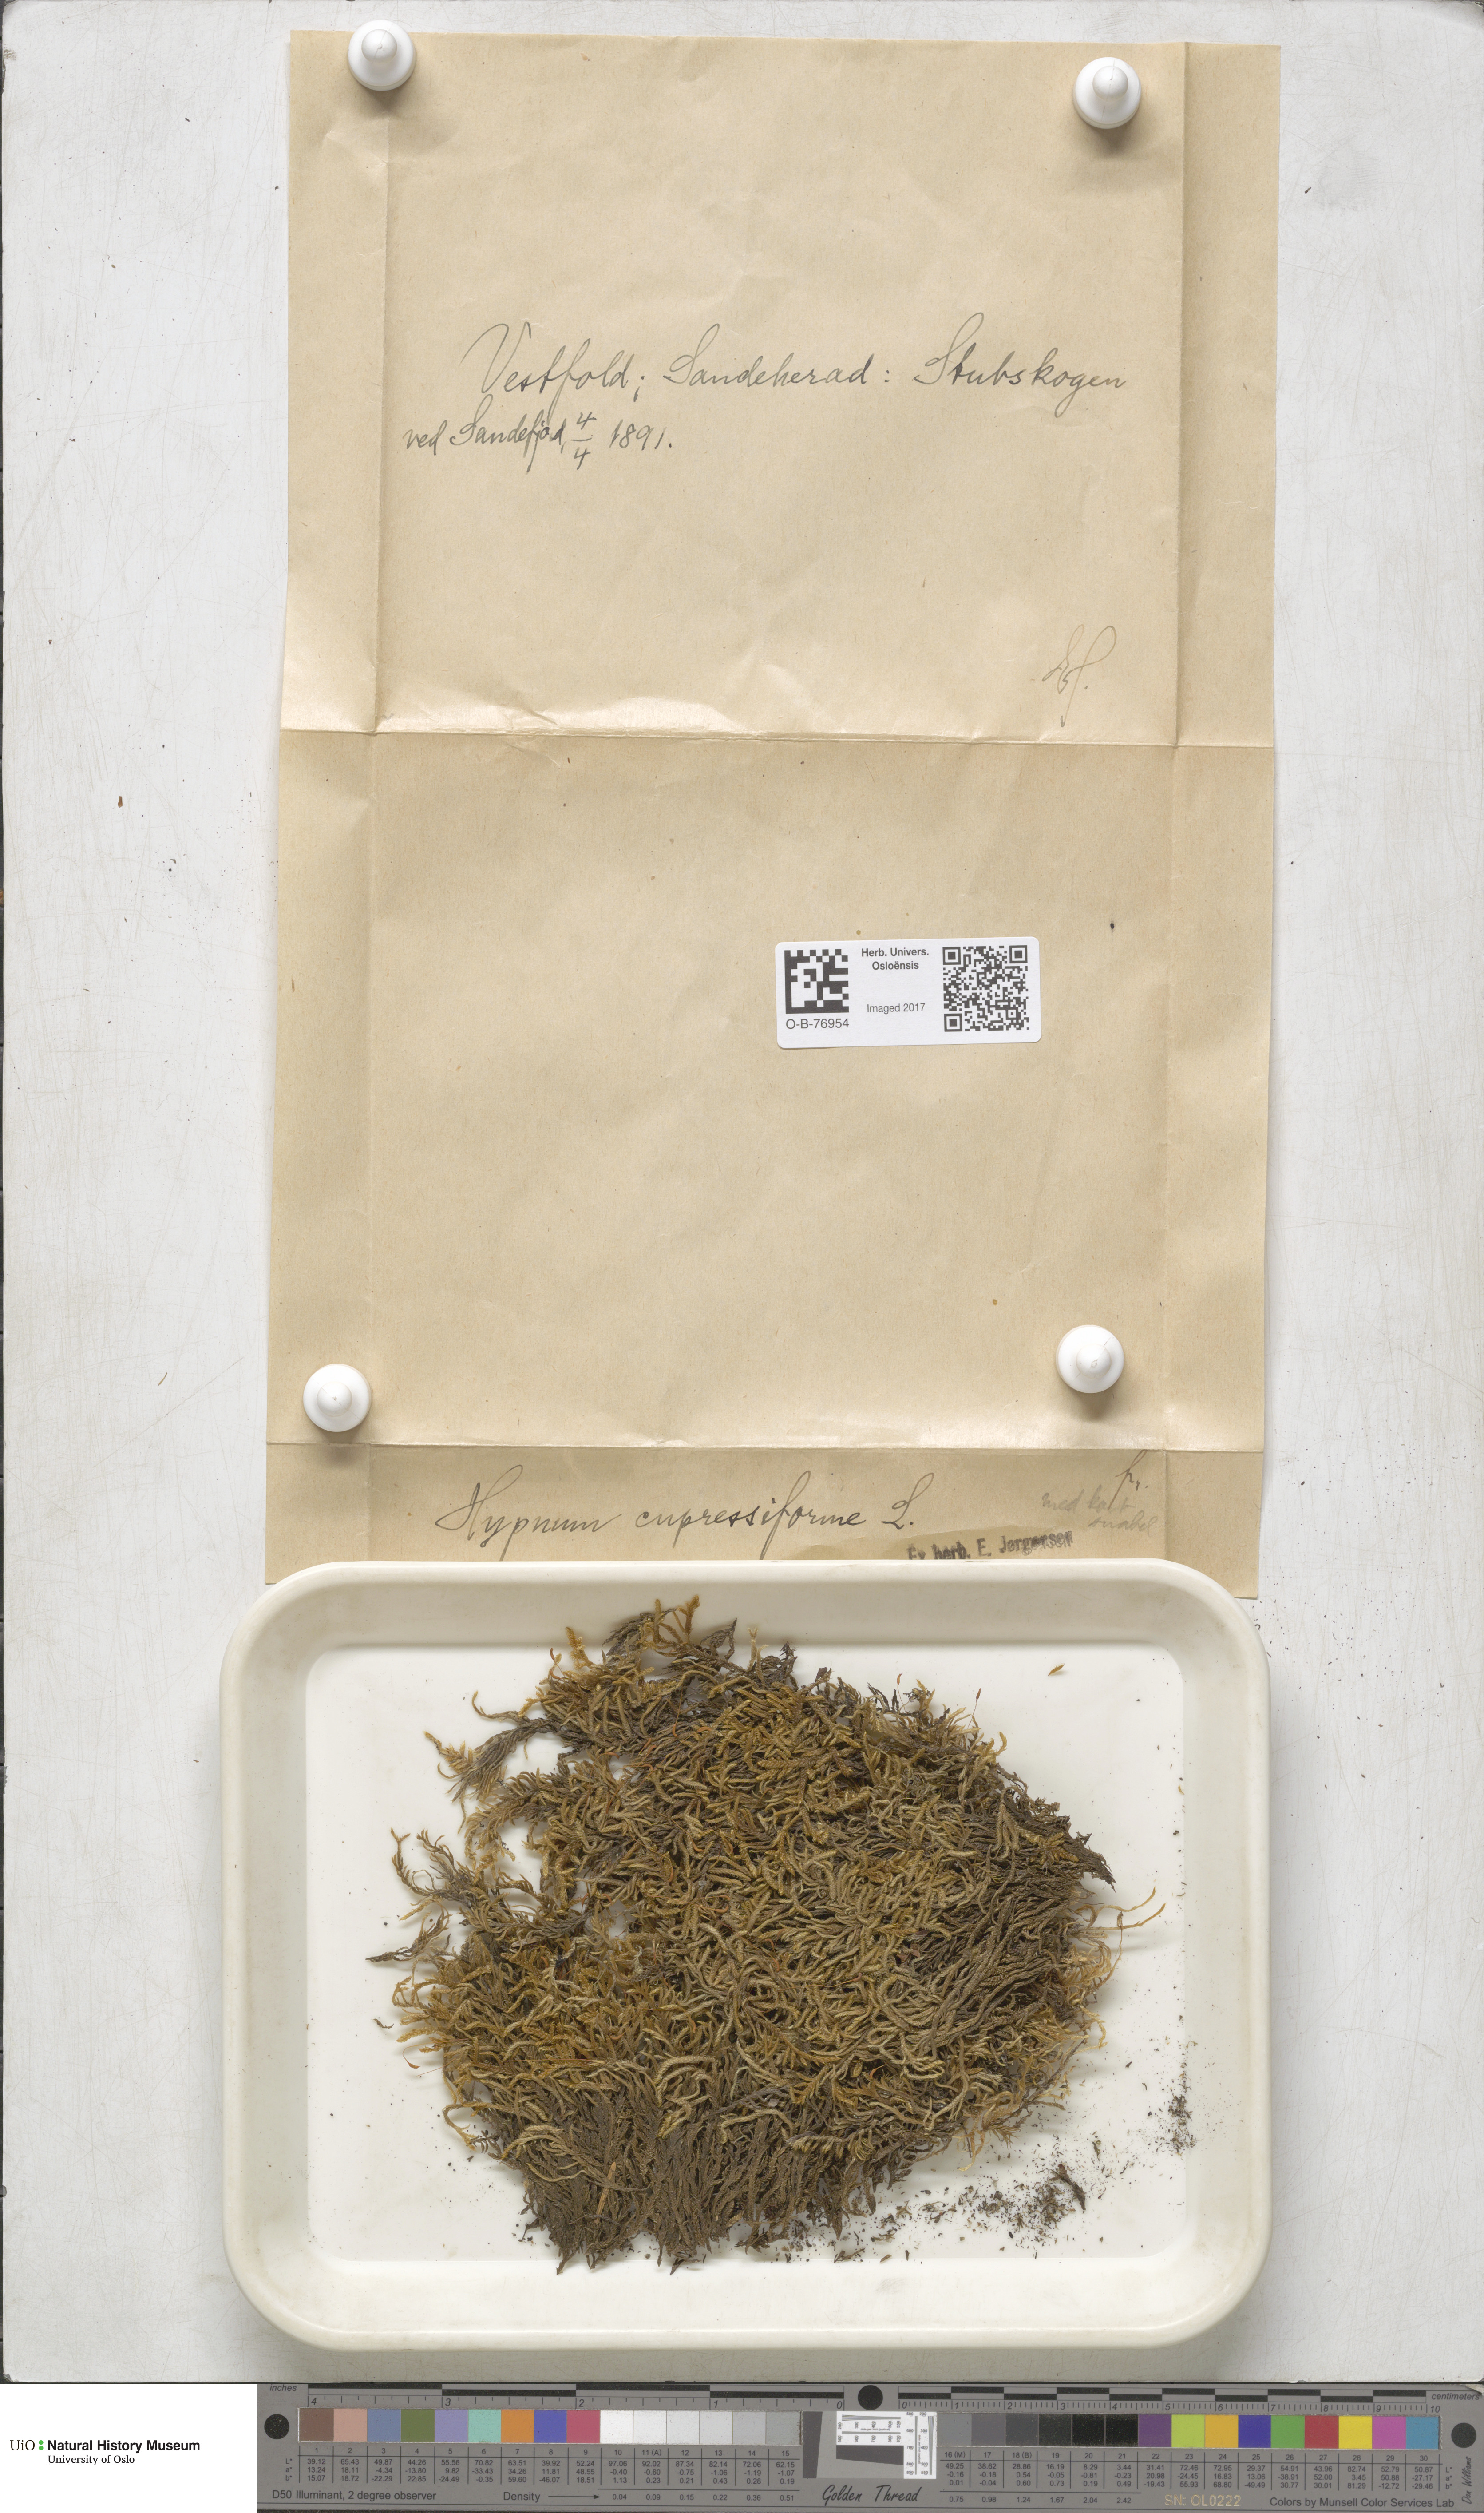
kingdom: Plantae
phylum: Bryophyta
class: Bryopsida
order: Hypnales
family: Hypnaceae
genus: Hypnum
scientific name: Hypnum cupressiforme
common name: Cypress-leaved plait-moss
